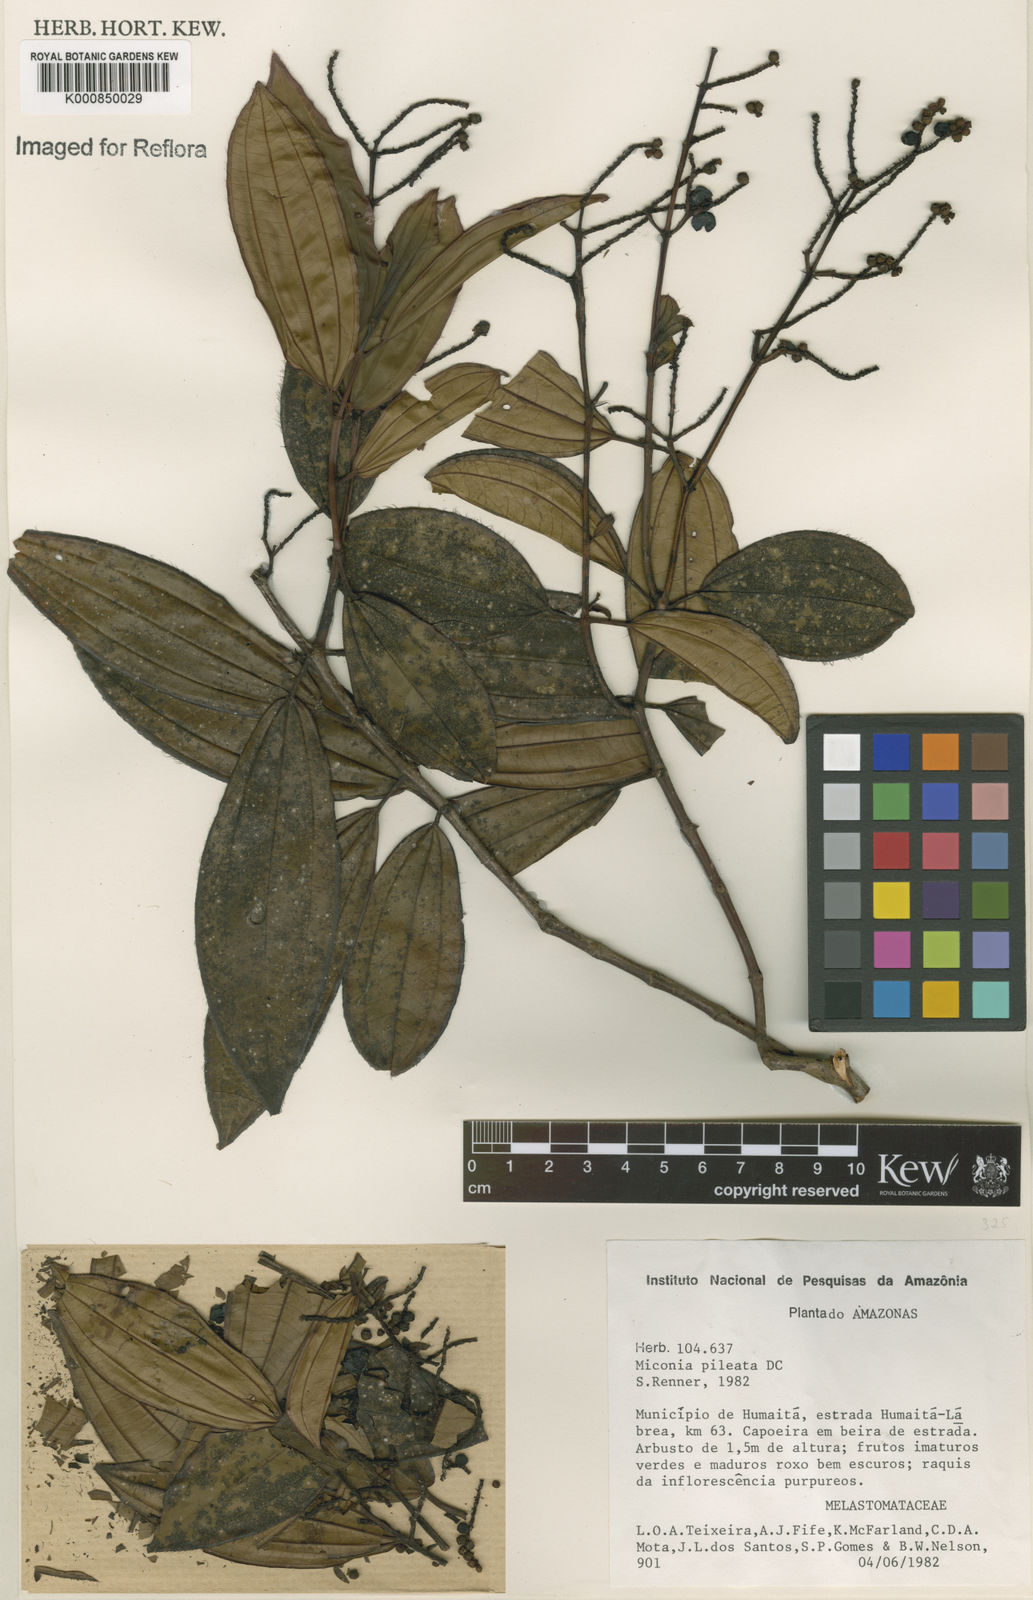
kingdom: Plantae
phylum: Tracheophyta
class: Magnoliopsida
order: Myrtales
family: Melastomataceae
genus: Miconia
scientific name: Miconia pileata
